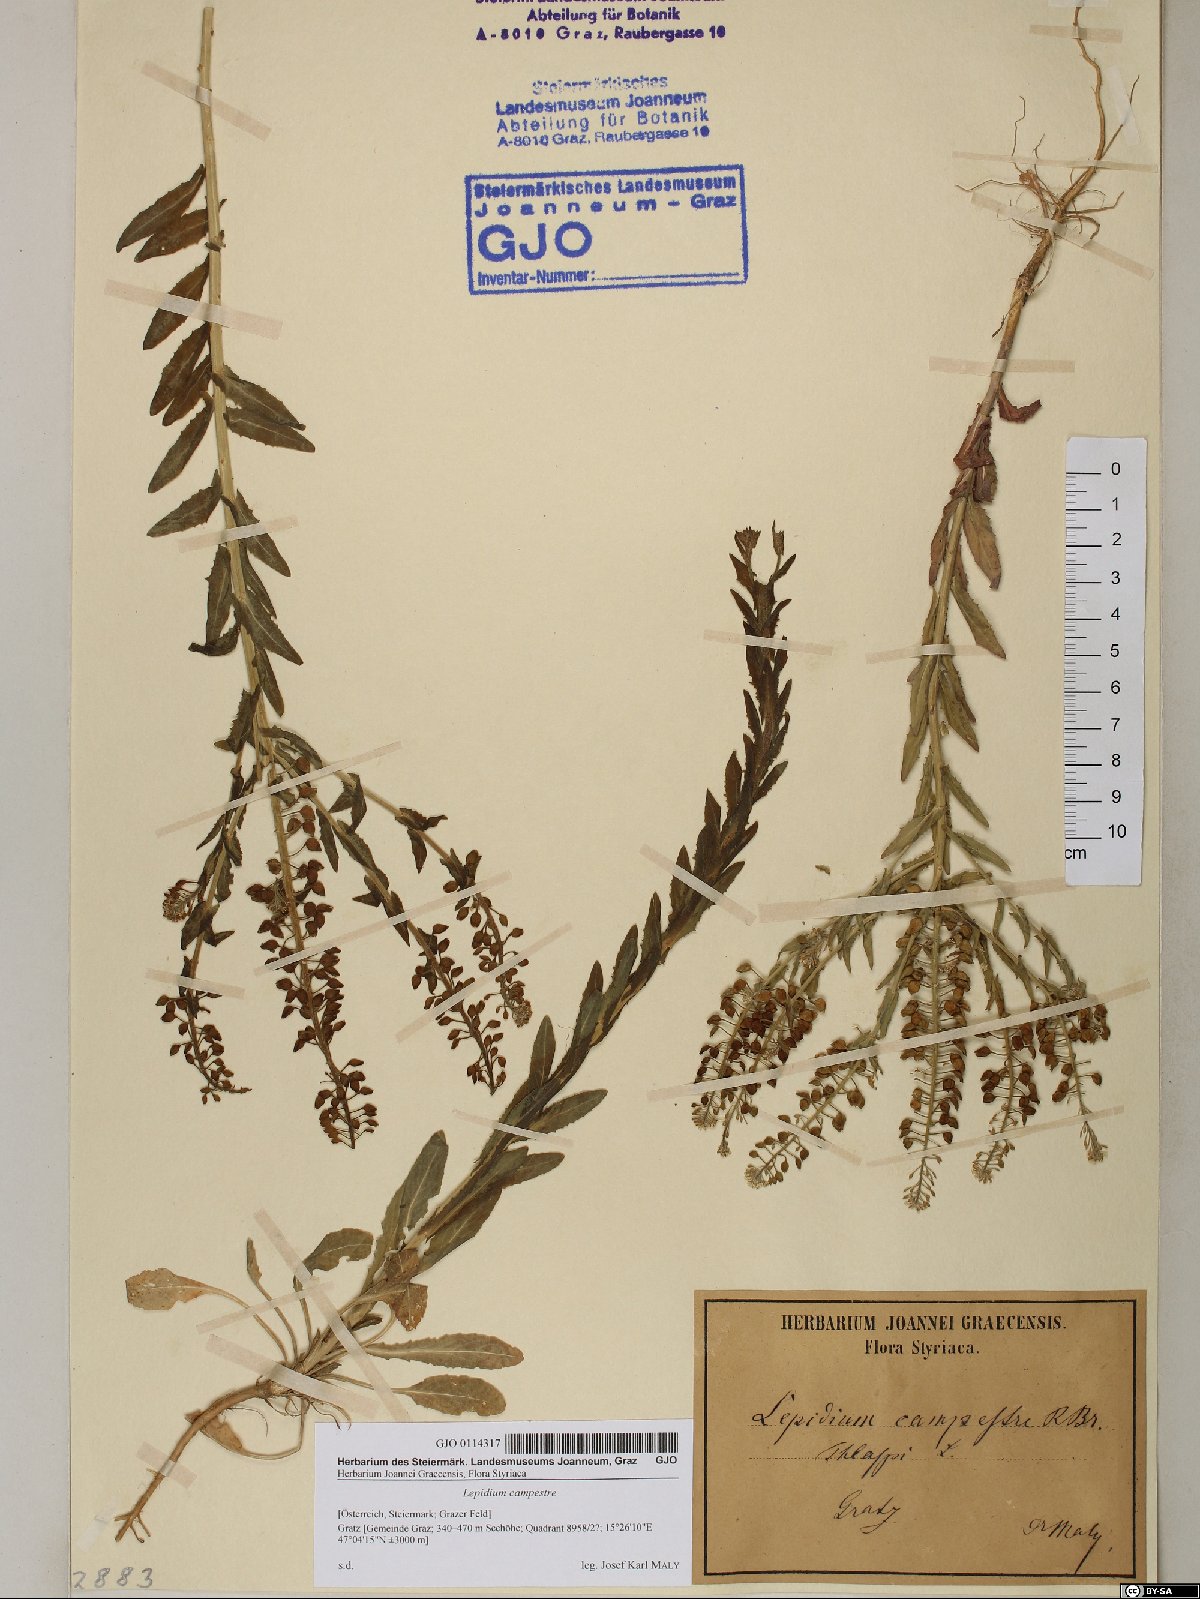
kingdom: Plantae
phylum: Tracheophyta
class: Magnoliopsida
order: Brassicales
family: Brassicaceae
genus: Lepidium
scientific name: Lepidium campestre
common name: Field pepperwort
